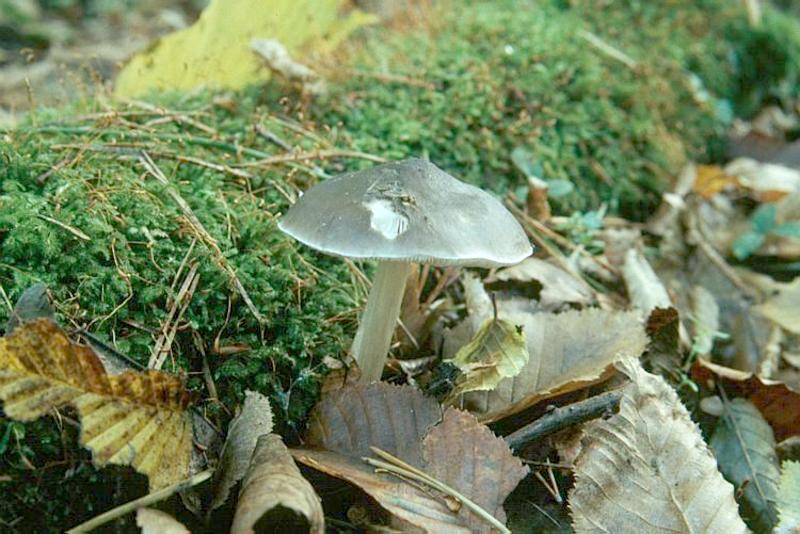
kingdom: Fungi
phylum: Basidiomycota
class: Agaricomycetes
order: Agaricales
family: Pluteaceae
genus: Pluteus
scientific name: Pluteus cervinus
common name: Deer shield
